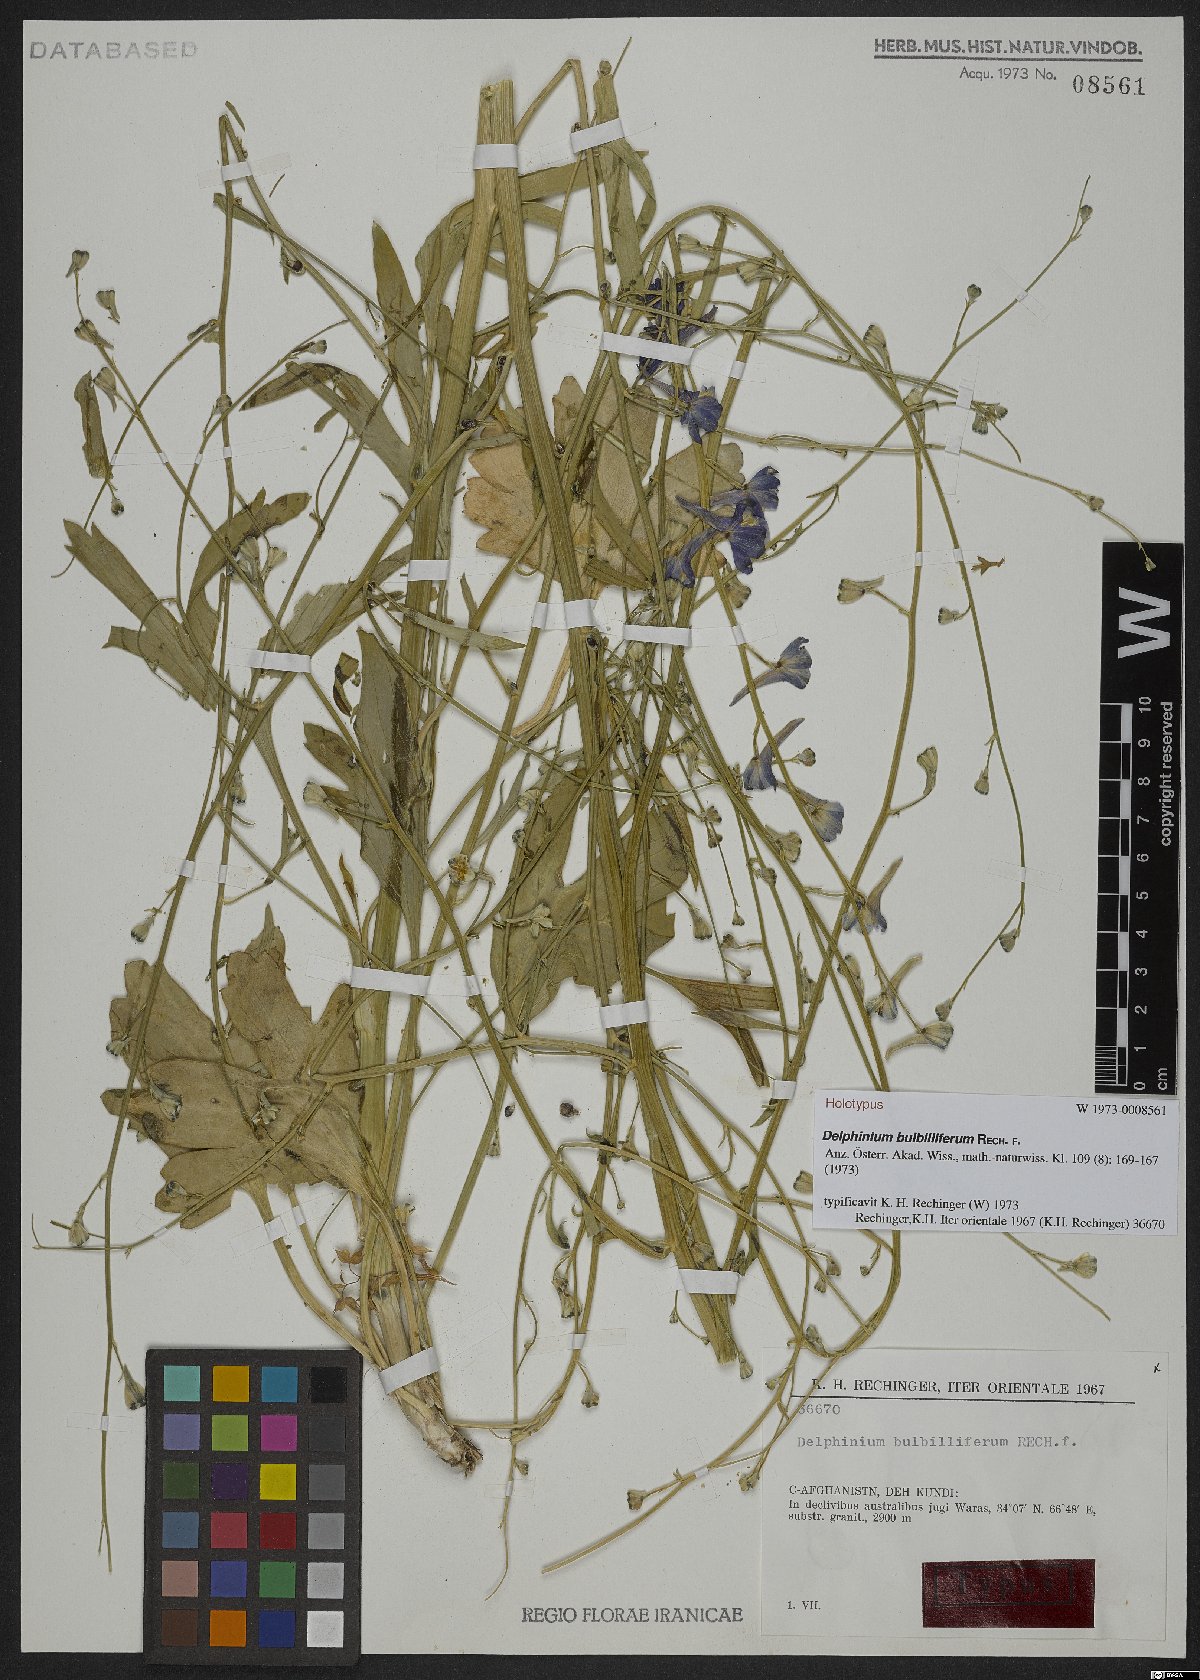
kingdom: Plantae
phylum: Tracheophyta
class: Magnoliopsida
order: Ranunculales
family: Ranunculaceae
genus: Delphinium
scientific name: Delphinium bulbilliferum
